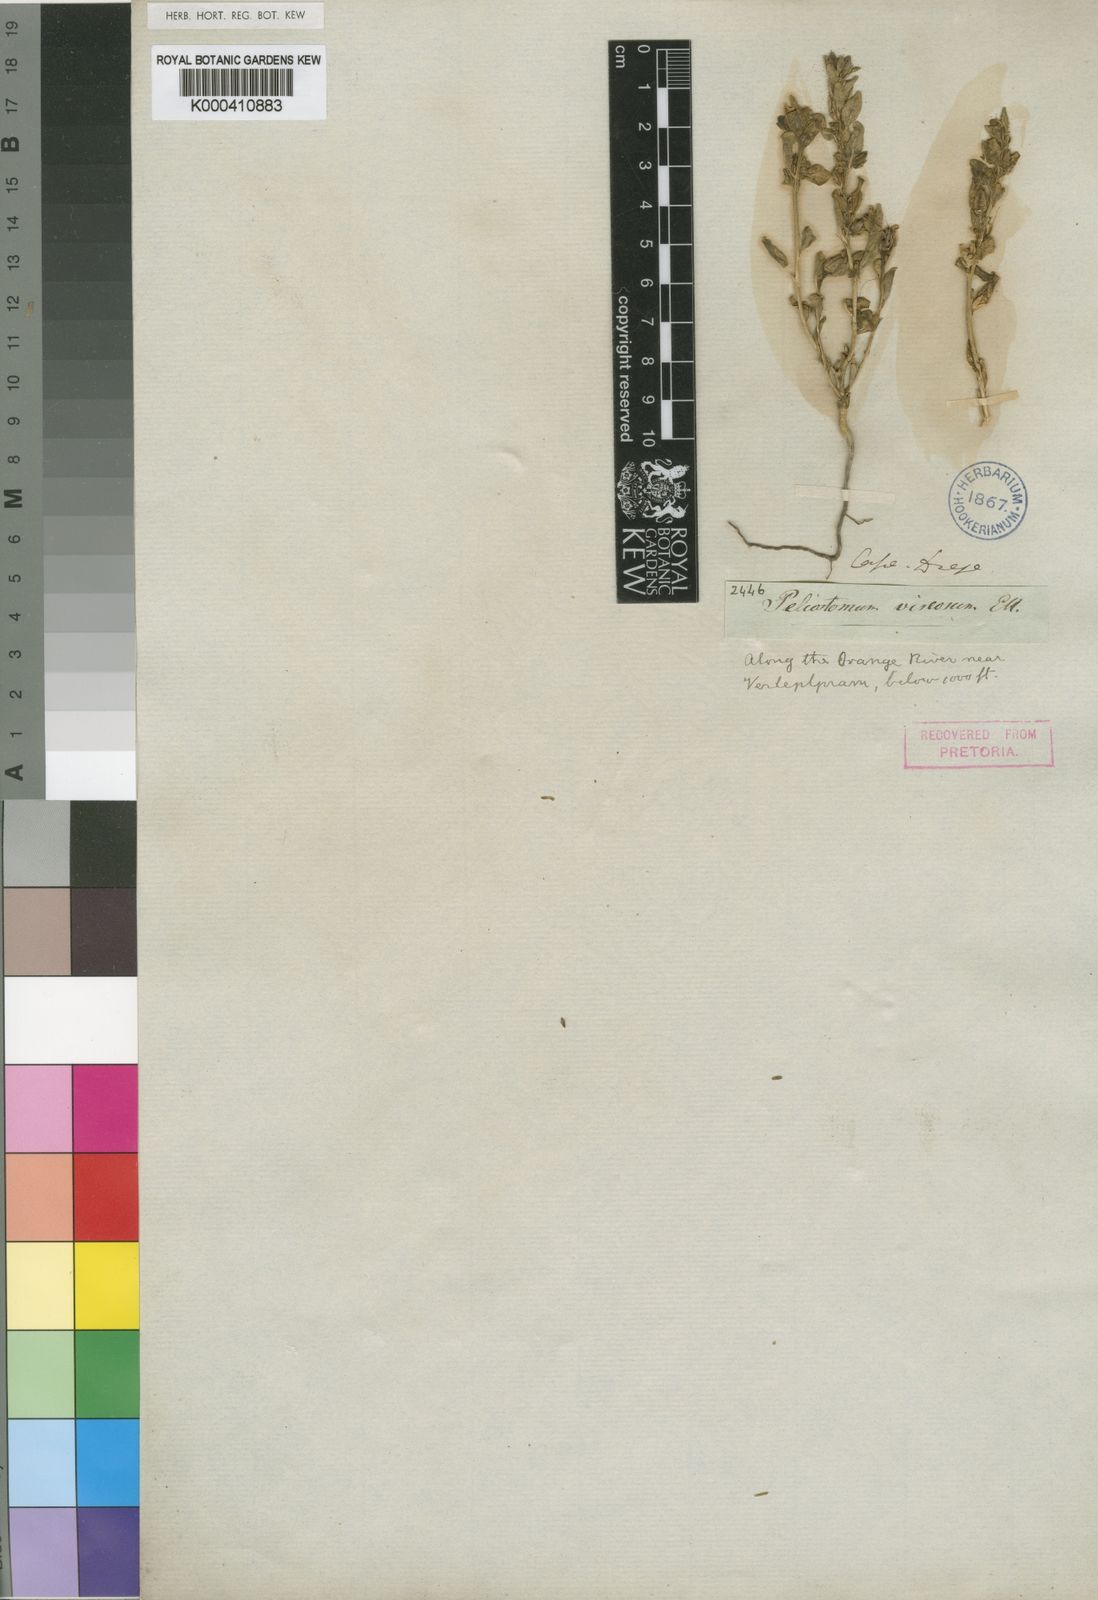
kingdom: Plantae
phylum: Tracheophyta
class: Magnoliopsida
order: Lamiales
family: Scrophulariaceae
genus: Peliostomum
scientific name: Peliostomum viscosum
